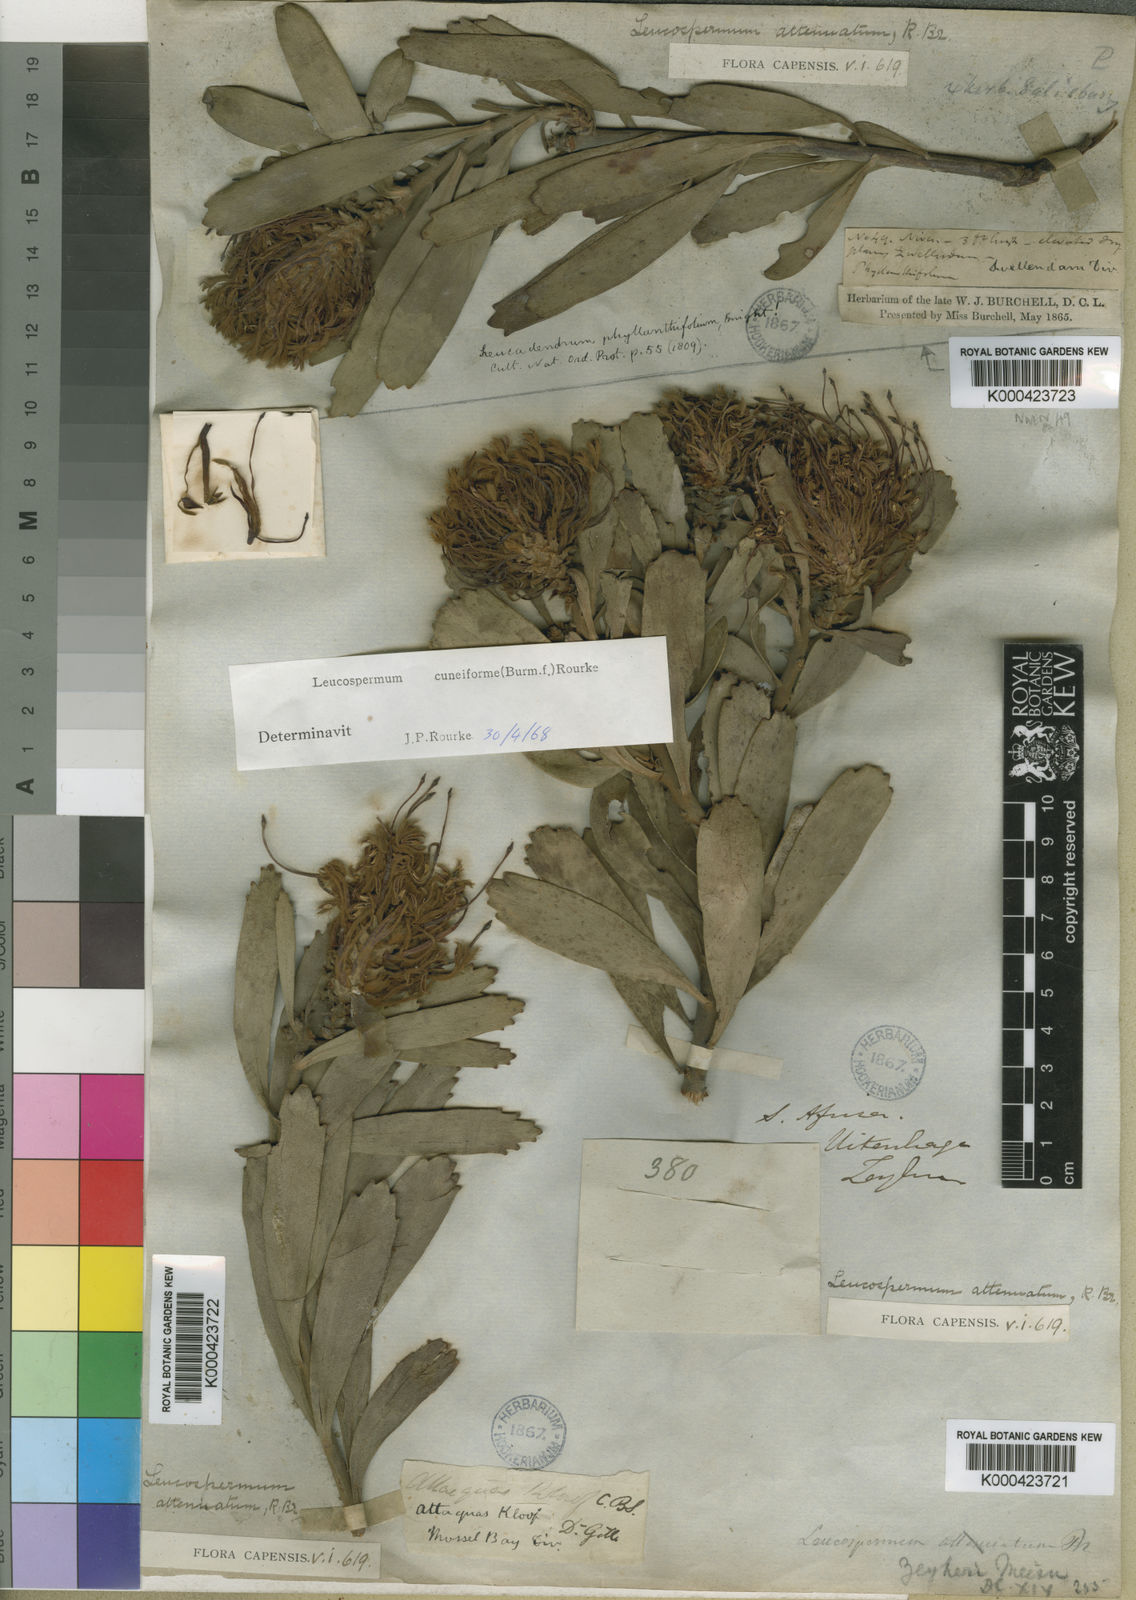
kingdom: Plantae
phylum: Tracheophyta
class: Magnoliopsida
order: Proteales
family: Proteaceae
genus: Leucospermum
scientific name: Leucospermum cuneiforme
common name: Common pincushion
